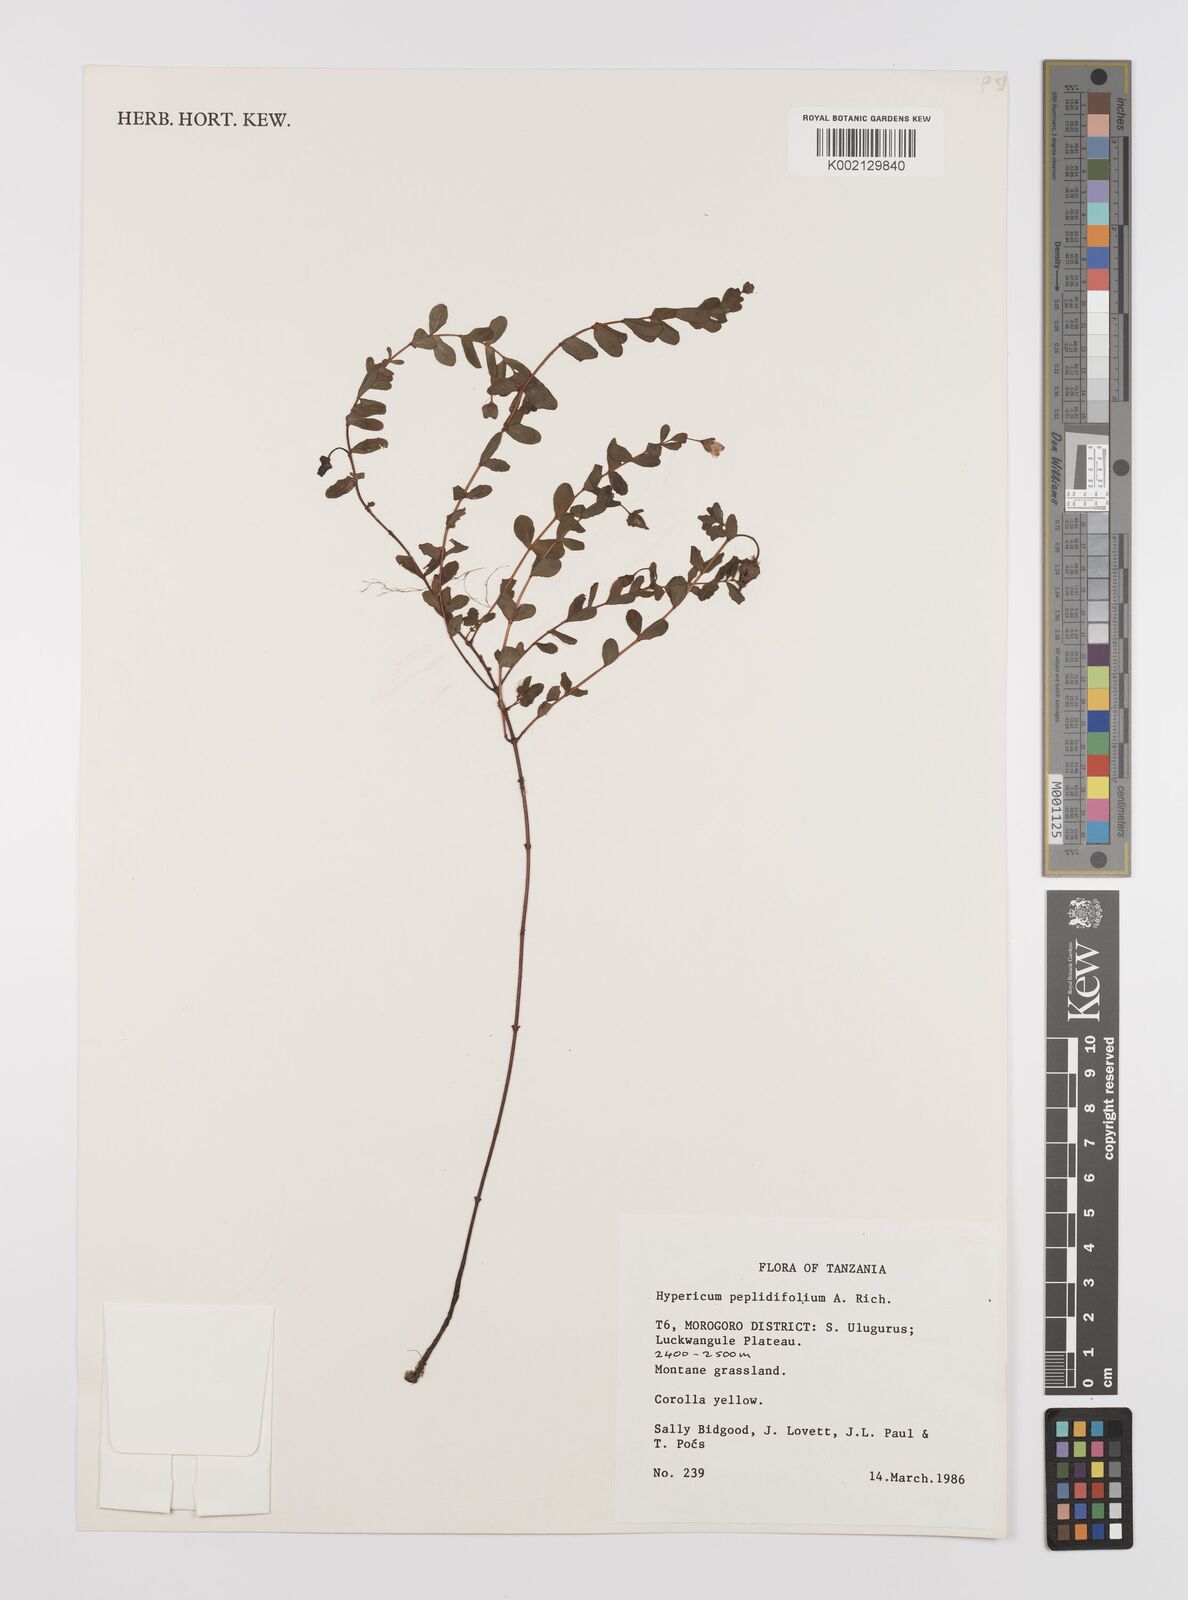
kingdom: Plantae
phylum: Tracheophyta
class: Magnoliopsida
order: Malpighiales
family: Hypericaceae
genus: Hypericum
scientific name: Hypericum peplidifolium
